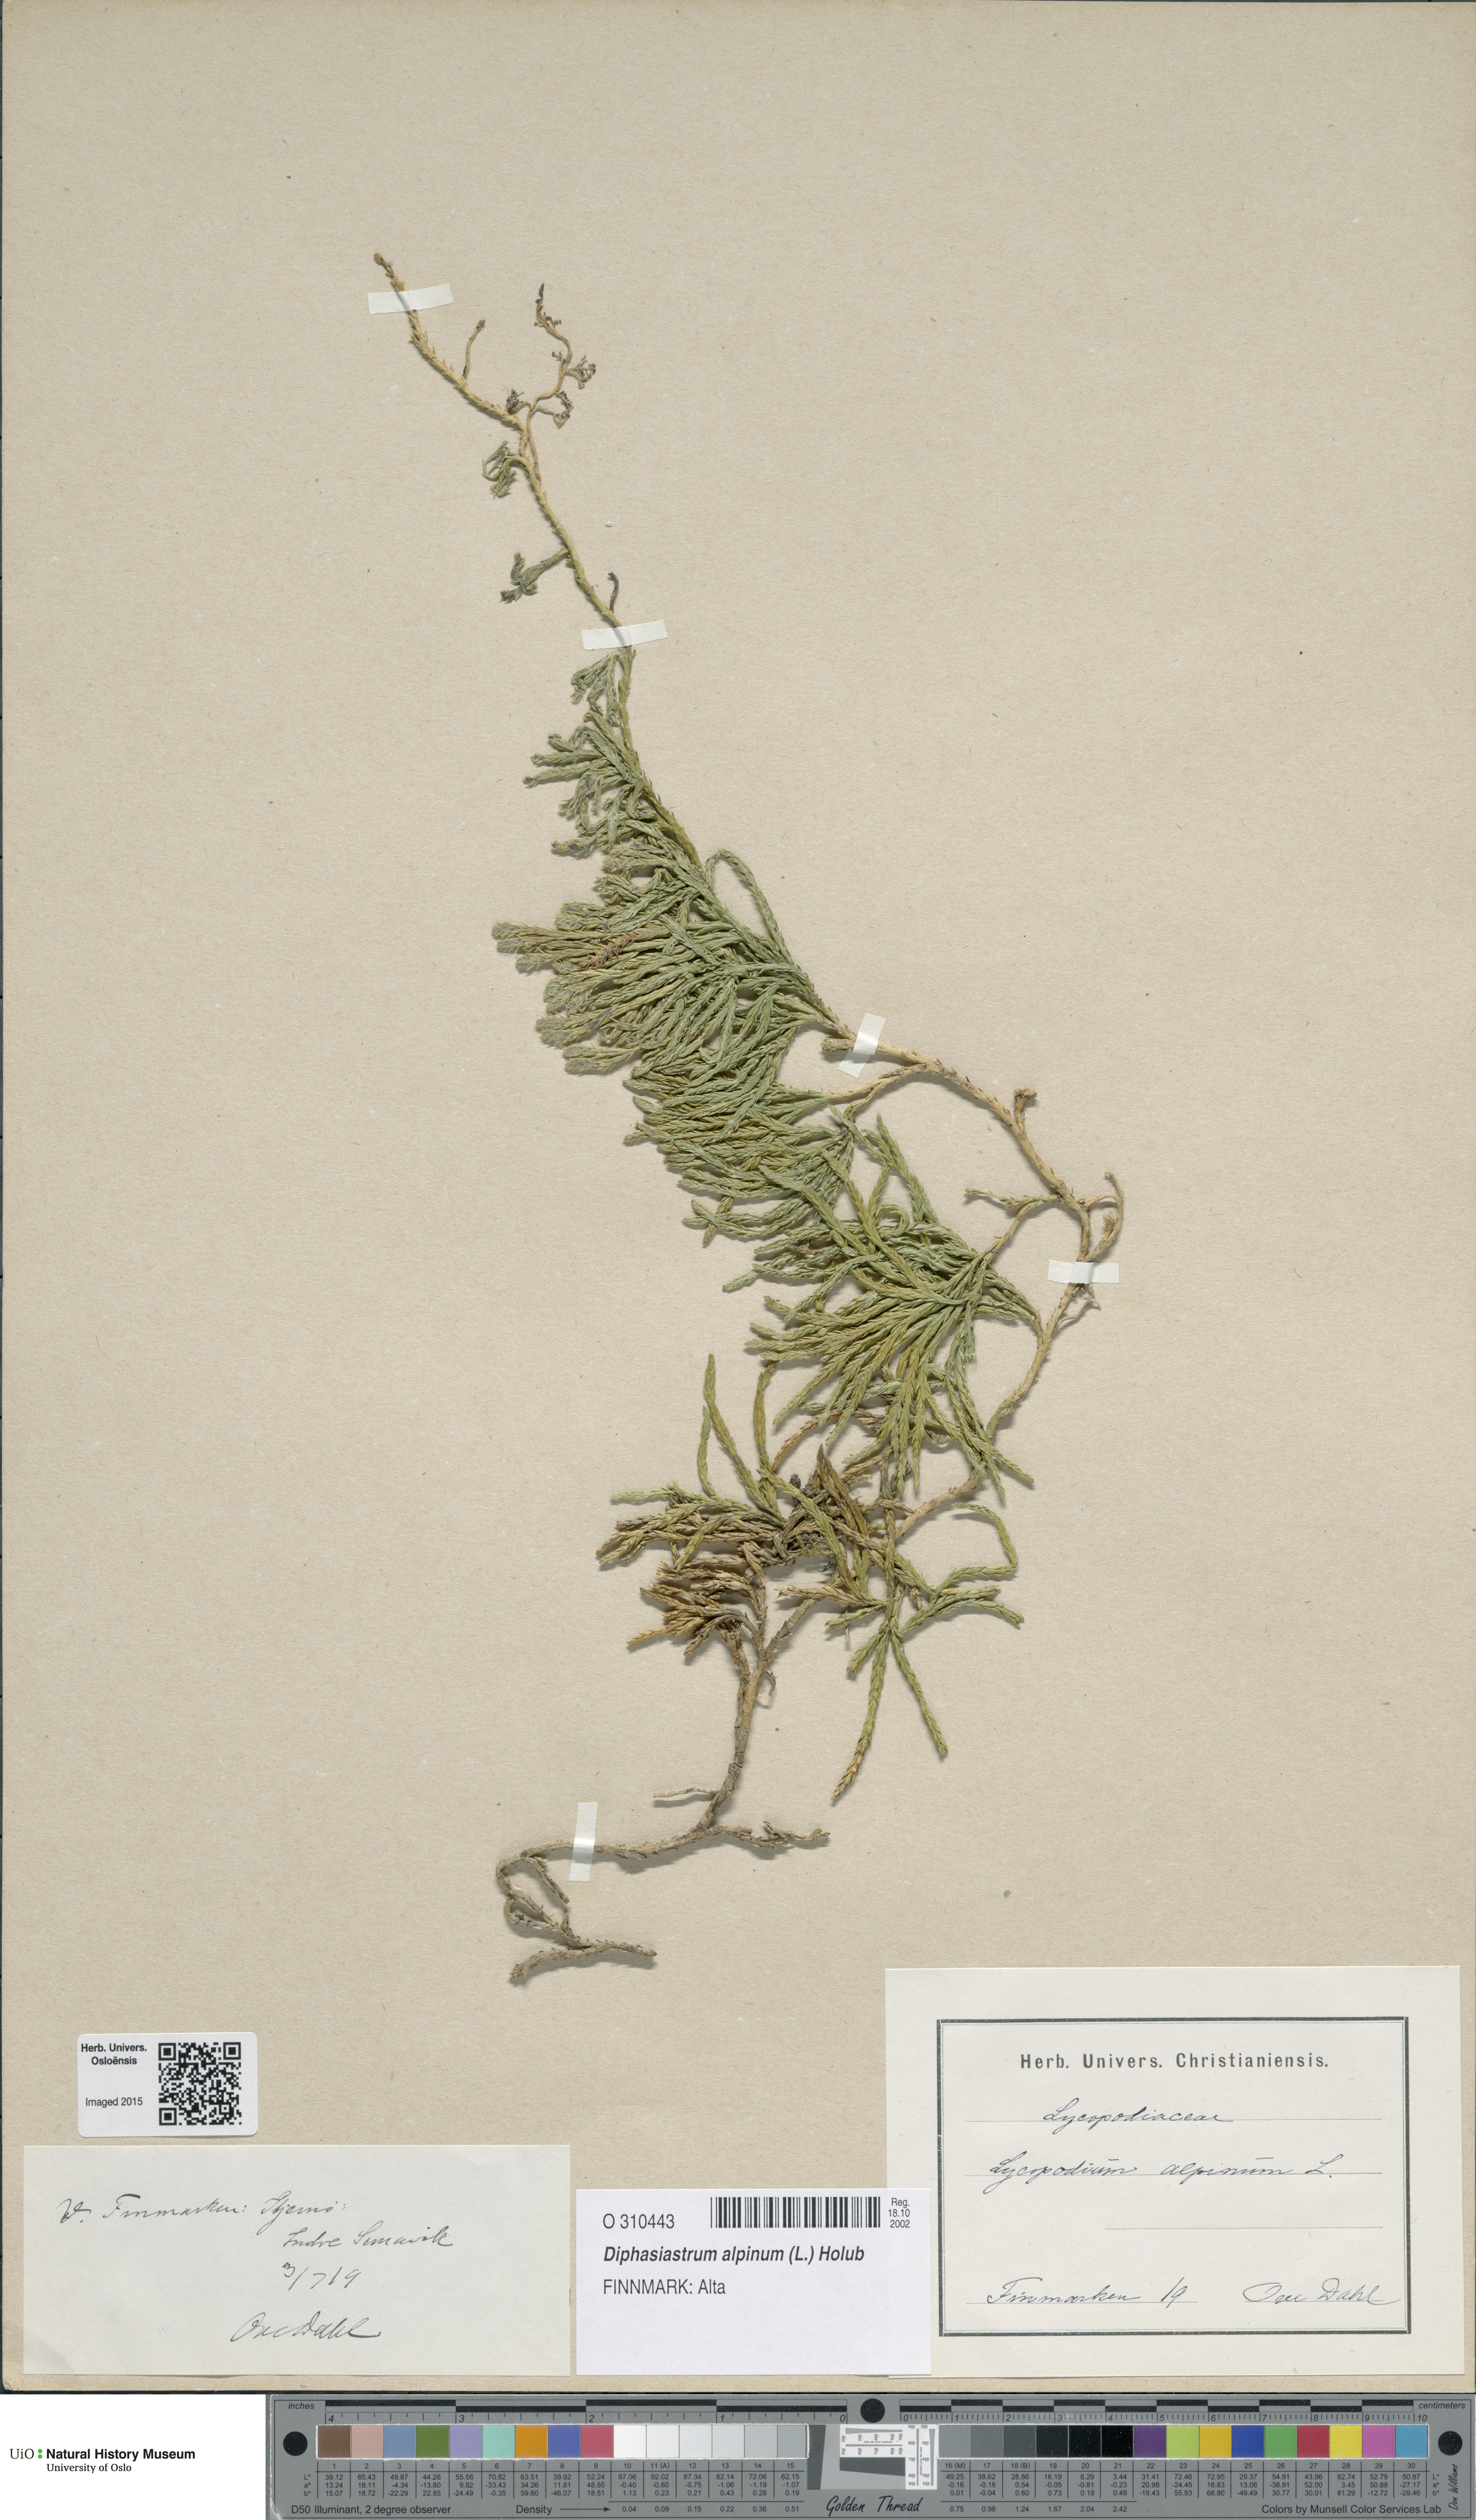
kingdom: Plantae
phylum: Tracheophyta
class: Lycopodiopsida
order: Lycopodiales
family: Lycopodiaceae
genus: Diphasiastrum
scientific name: Diphasiastrum alpinum
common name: Alpine clubmoss
